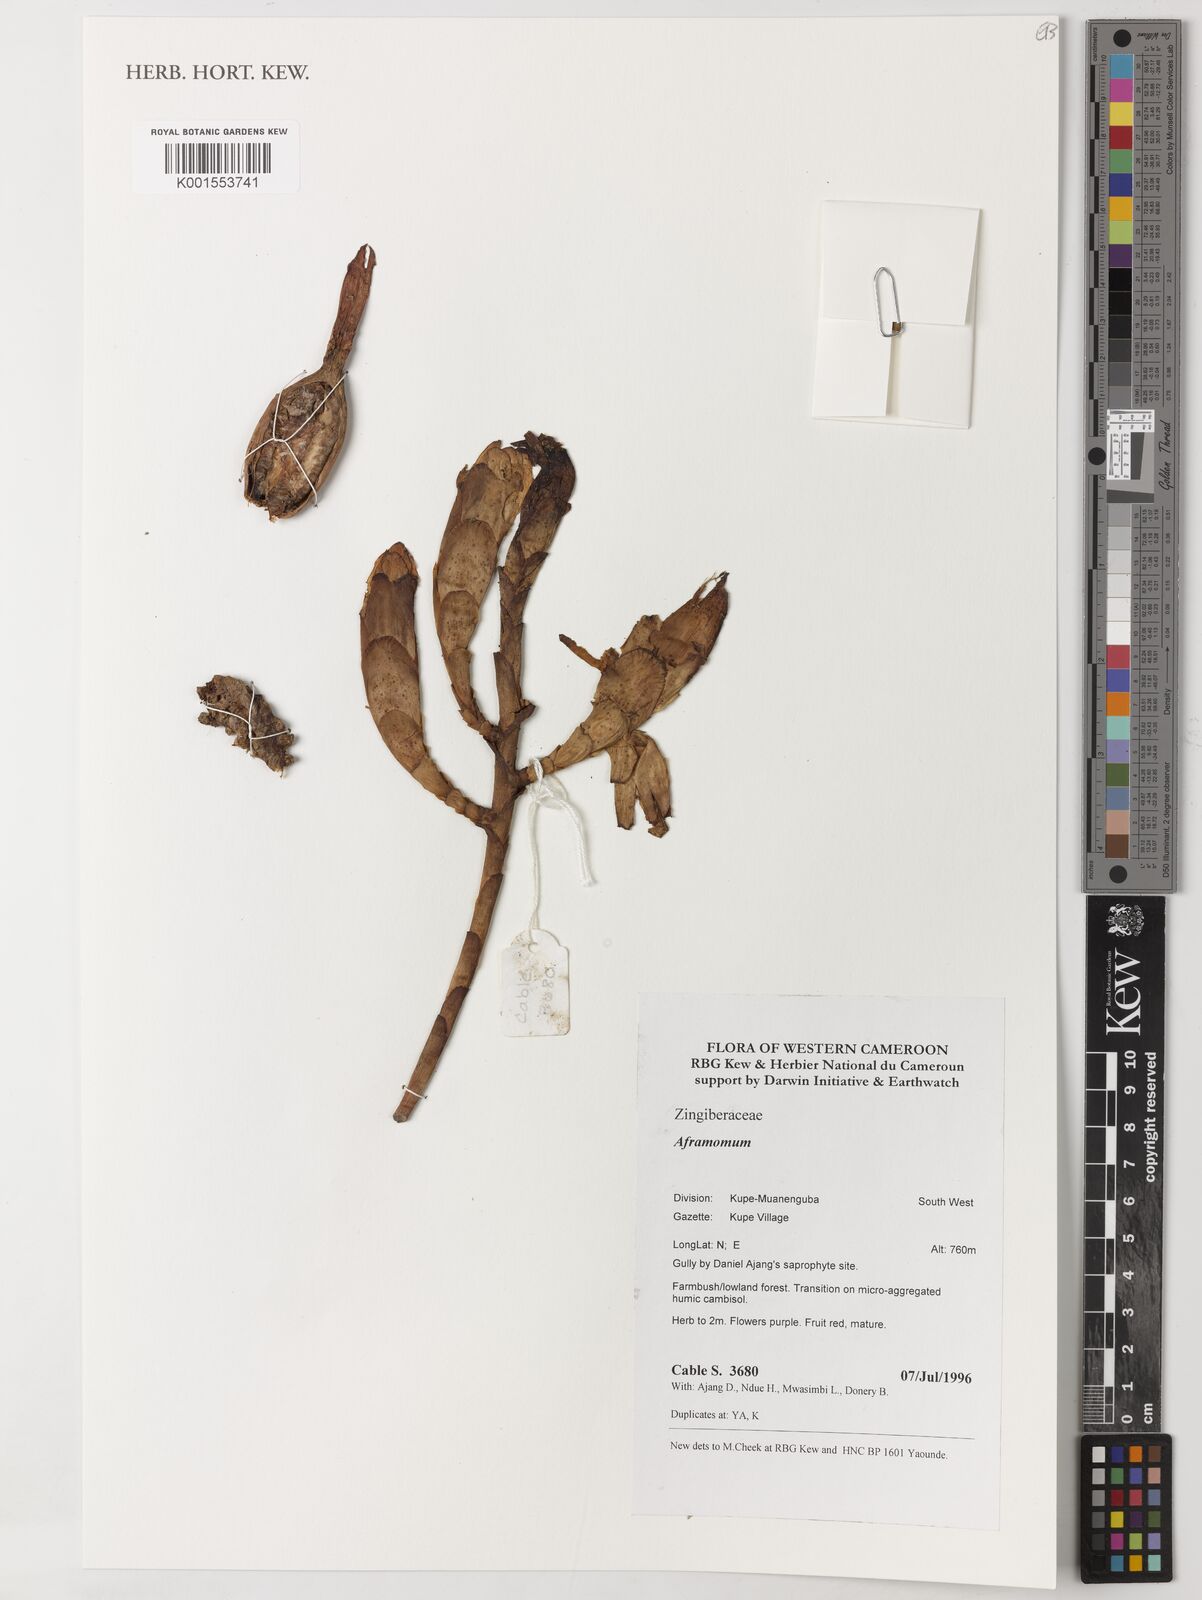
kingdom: Plantae
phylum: Tracheophyta
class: Liliopsida
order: Zingiberales
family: Zingiberaceae
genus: Aframomum
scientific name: Aframomum
